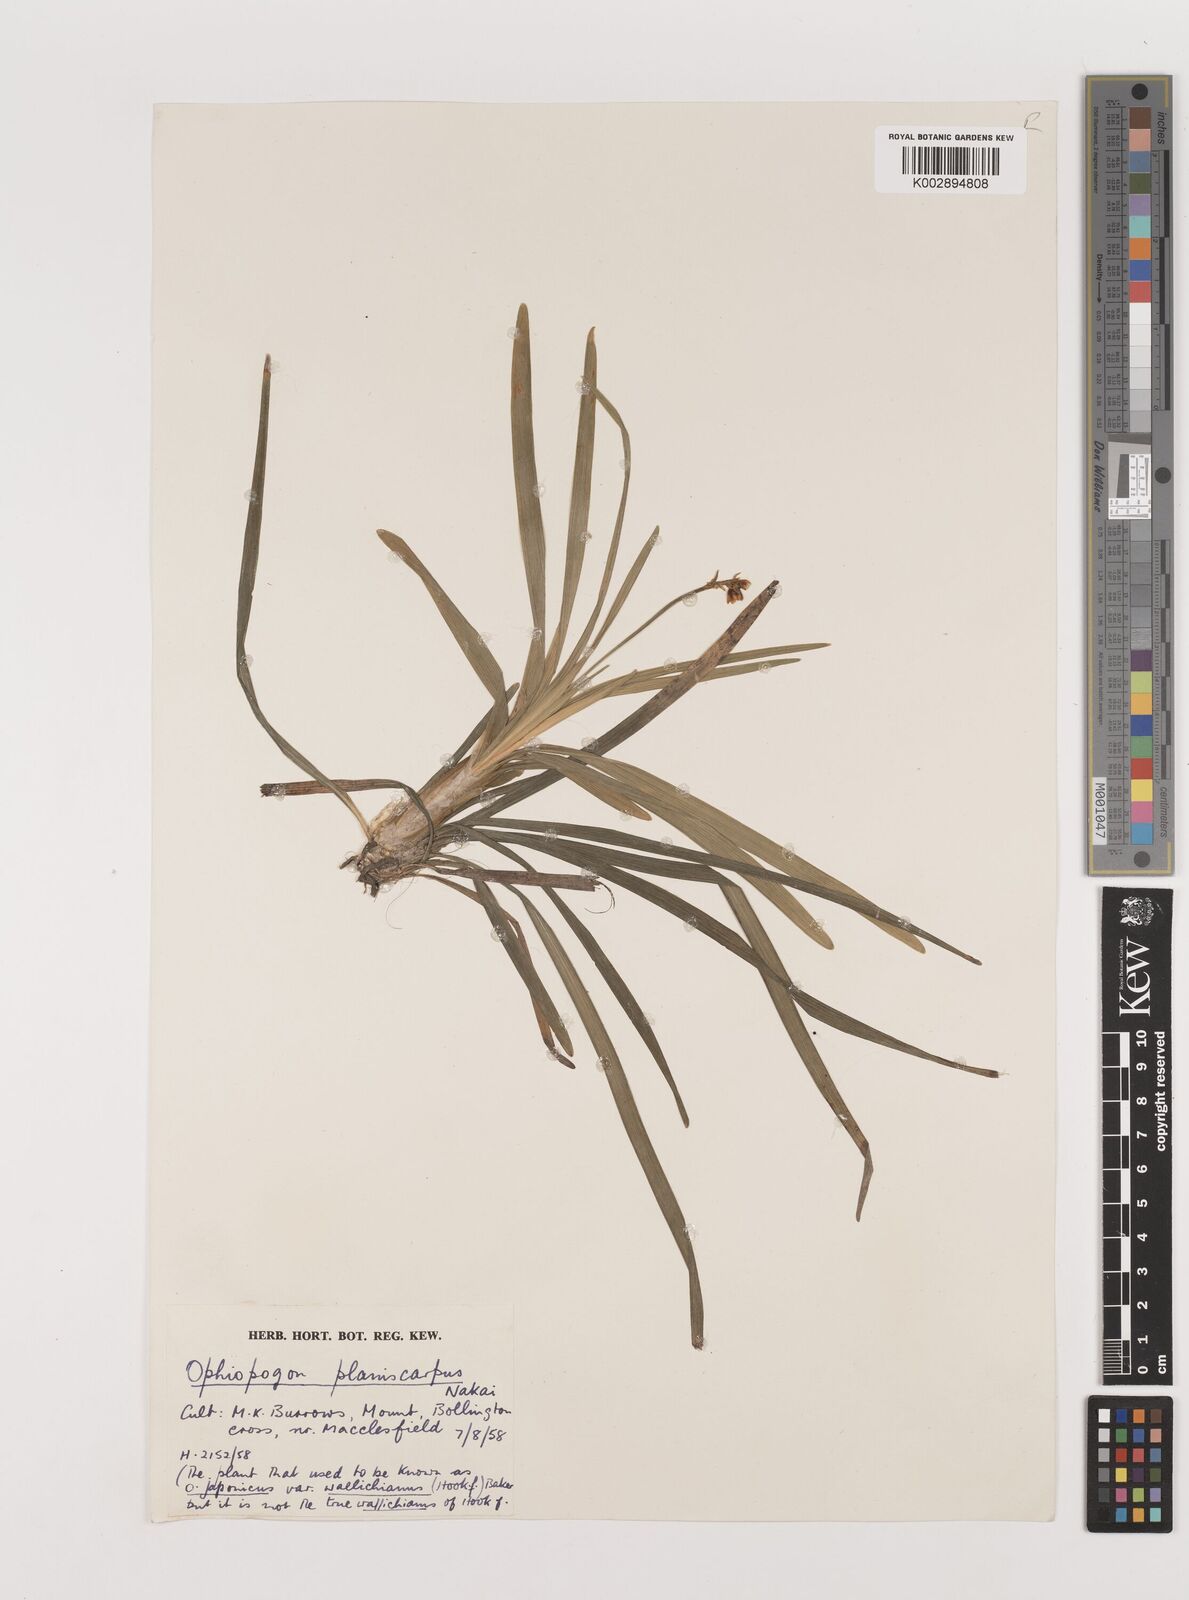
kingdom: Plantae
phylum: Tracheophyta
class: Liliopsida
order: Asparagales
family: Asparagaceae
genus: Ophiopogon
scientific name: Ophiopogon planiscapus
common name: Black mondo
